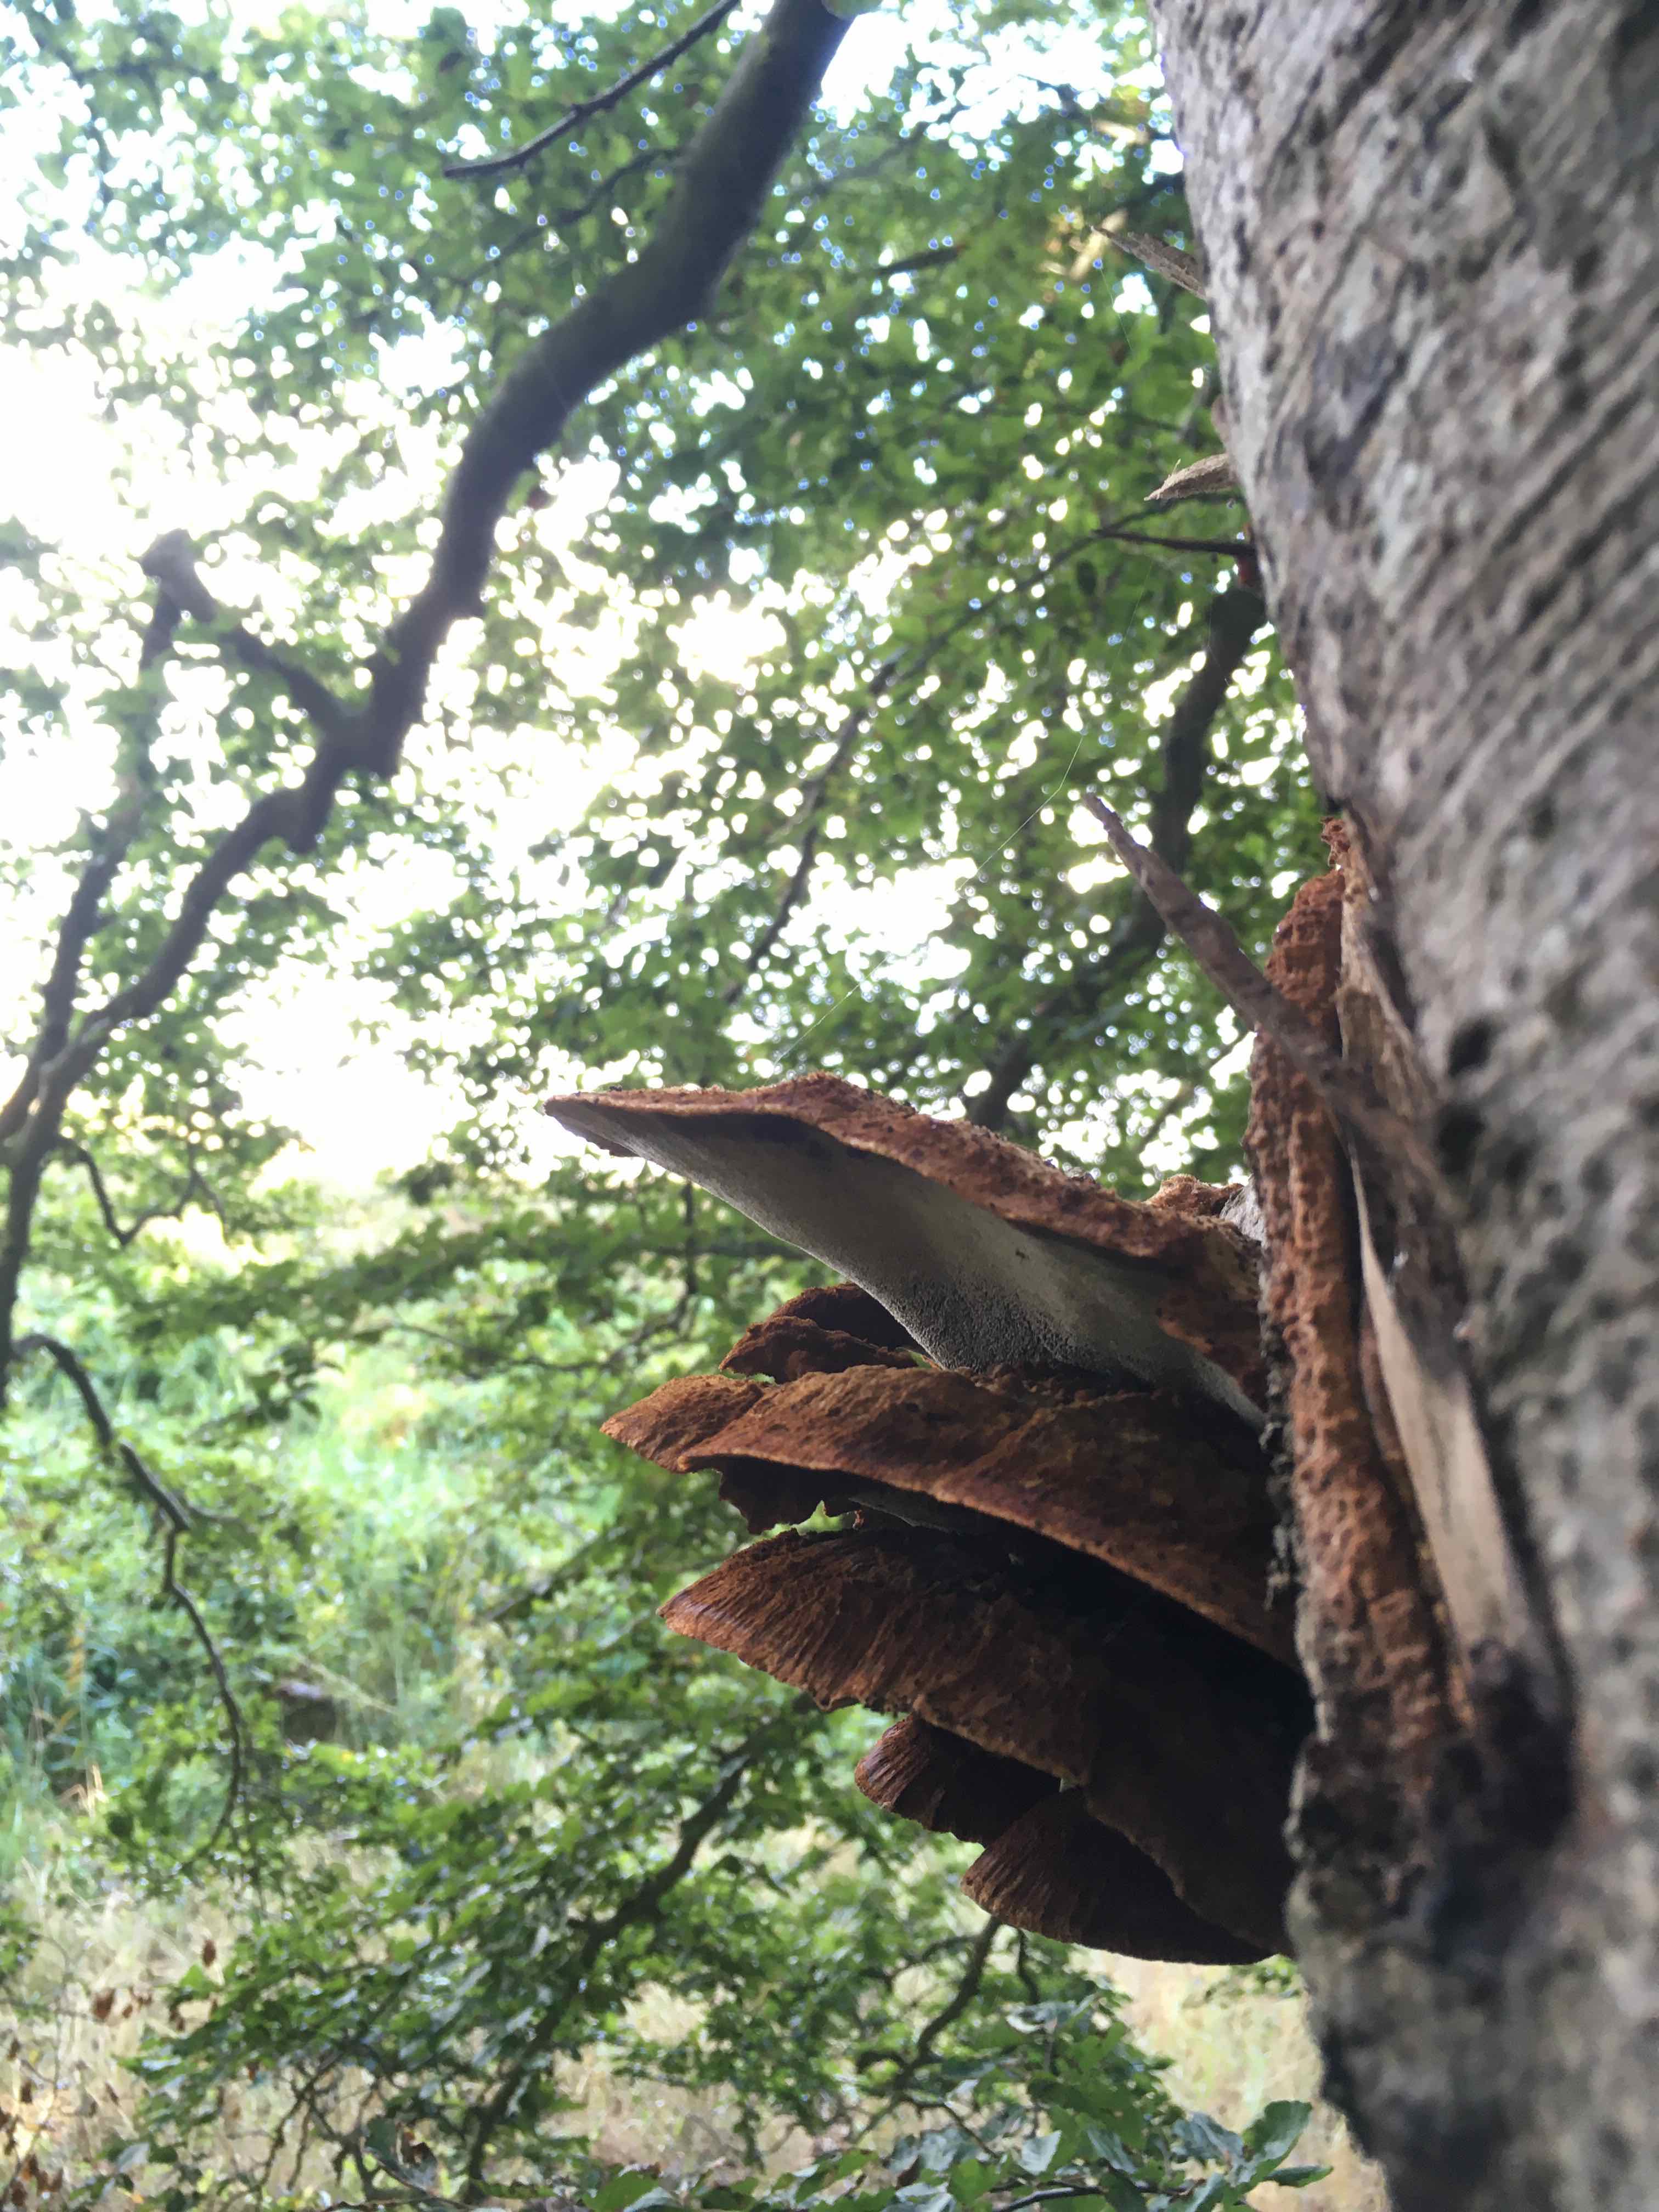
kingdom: Fungi
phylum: Basidiomycota
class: Agaricomycetes
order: Hymenochaetales
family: Hymenochaetaceae
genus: Inonotus
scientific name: Inonotus cuticularis
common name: kroghåret spejlporesvamp
